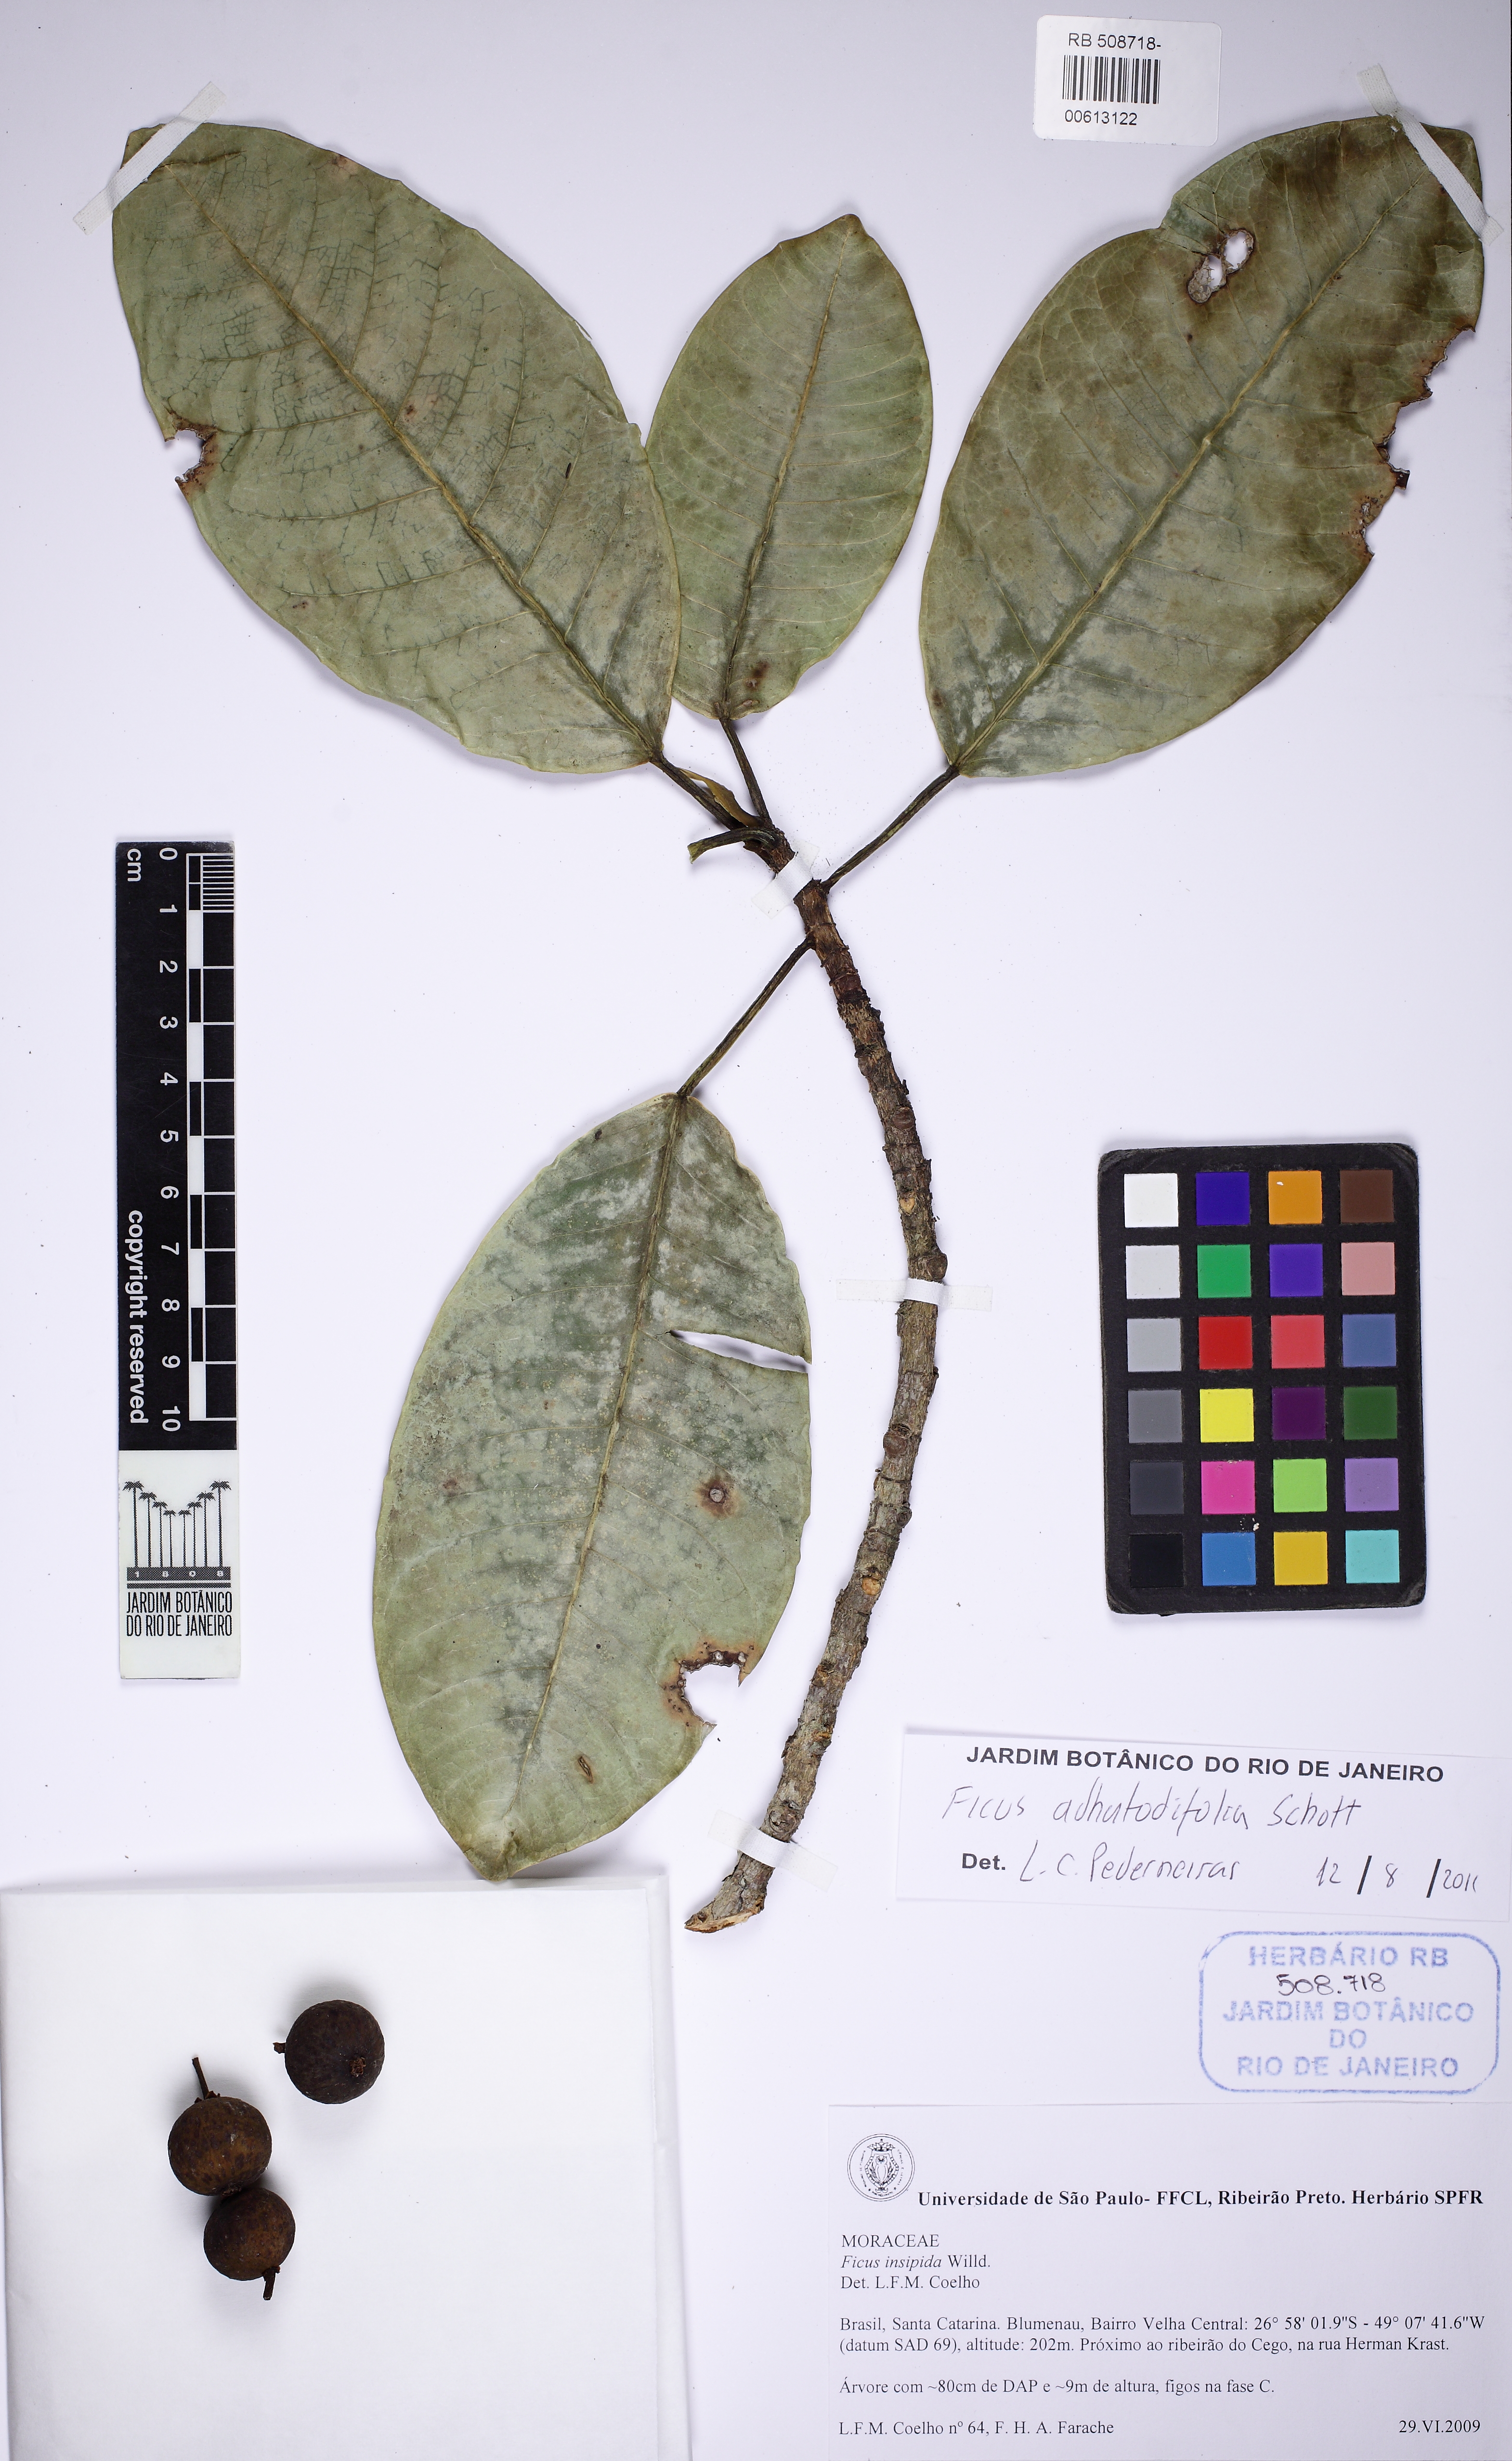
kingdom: Plantae
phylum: Tracheophyta
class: Magnoliopsida
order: Rosales
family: Moraceae
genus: Ficus
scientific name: Ficus adhatodifolia
